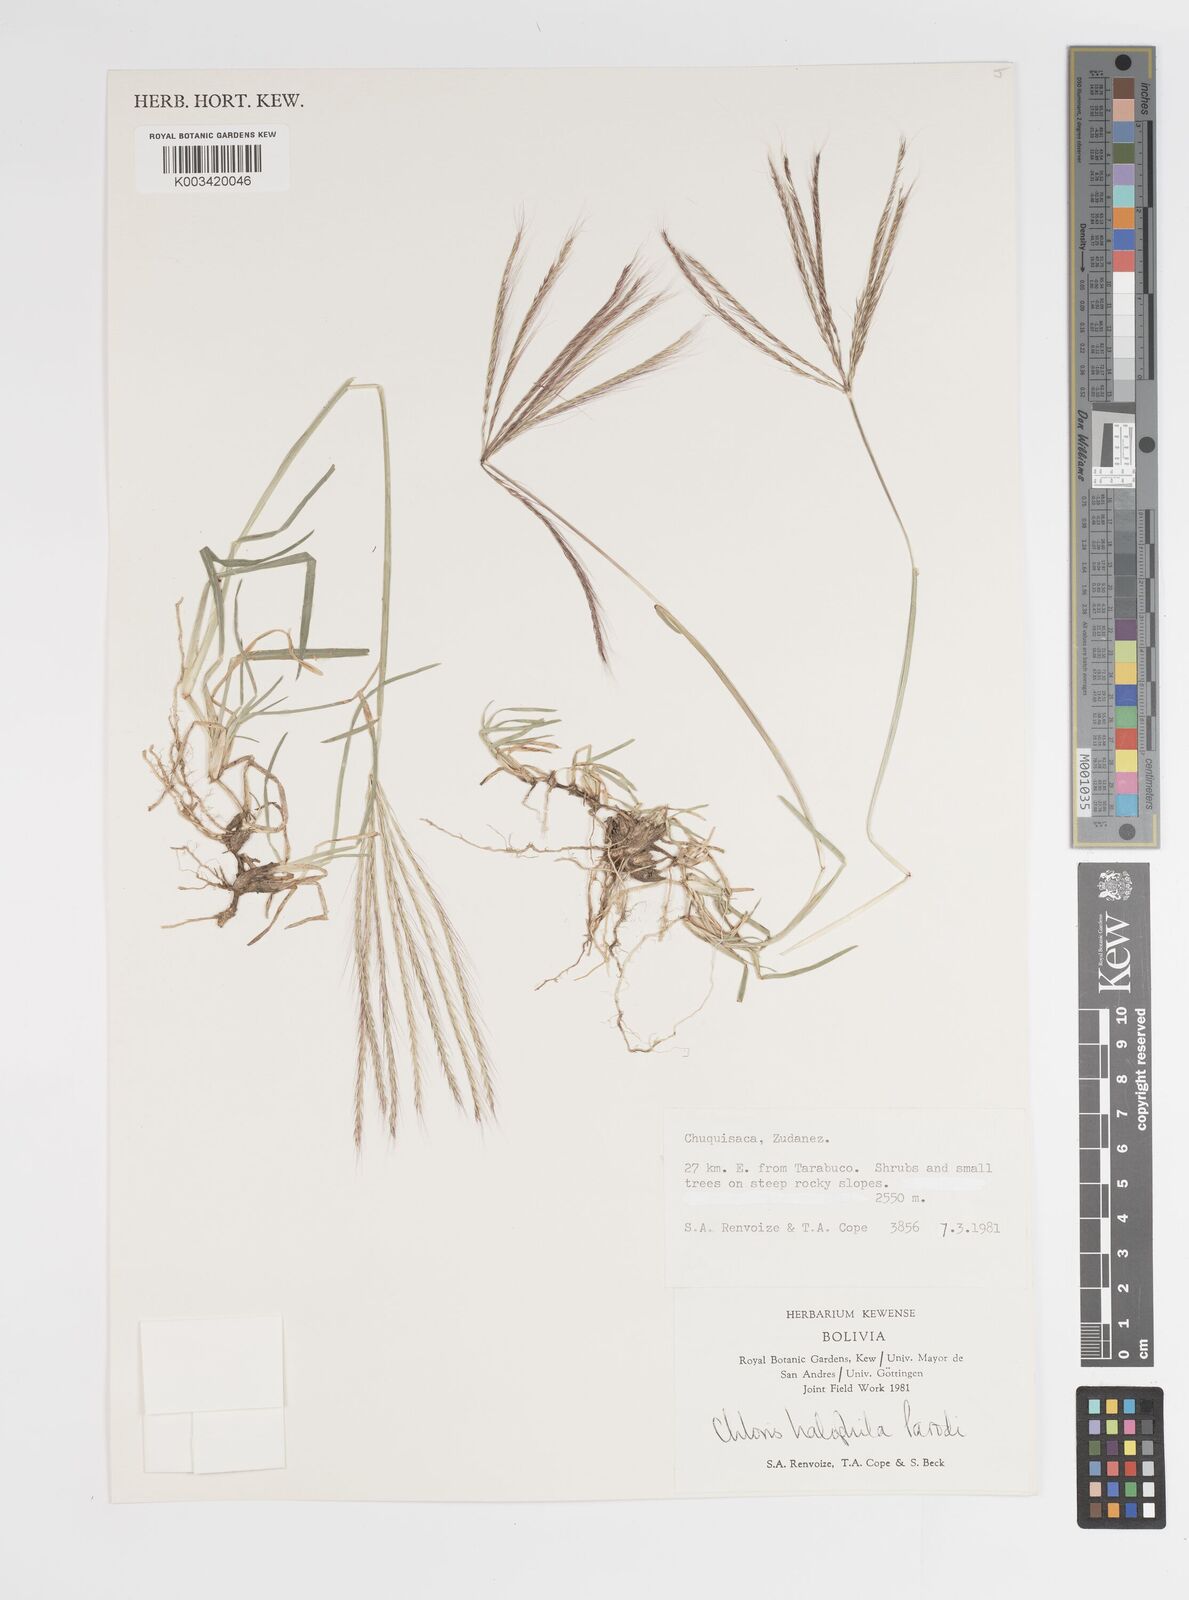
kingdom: Plantae
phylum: Tracheophyta
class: Liliopsida
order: Poales
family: Poaceae
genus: Chloris
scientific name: Chloris halophila
